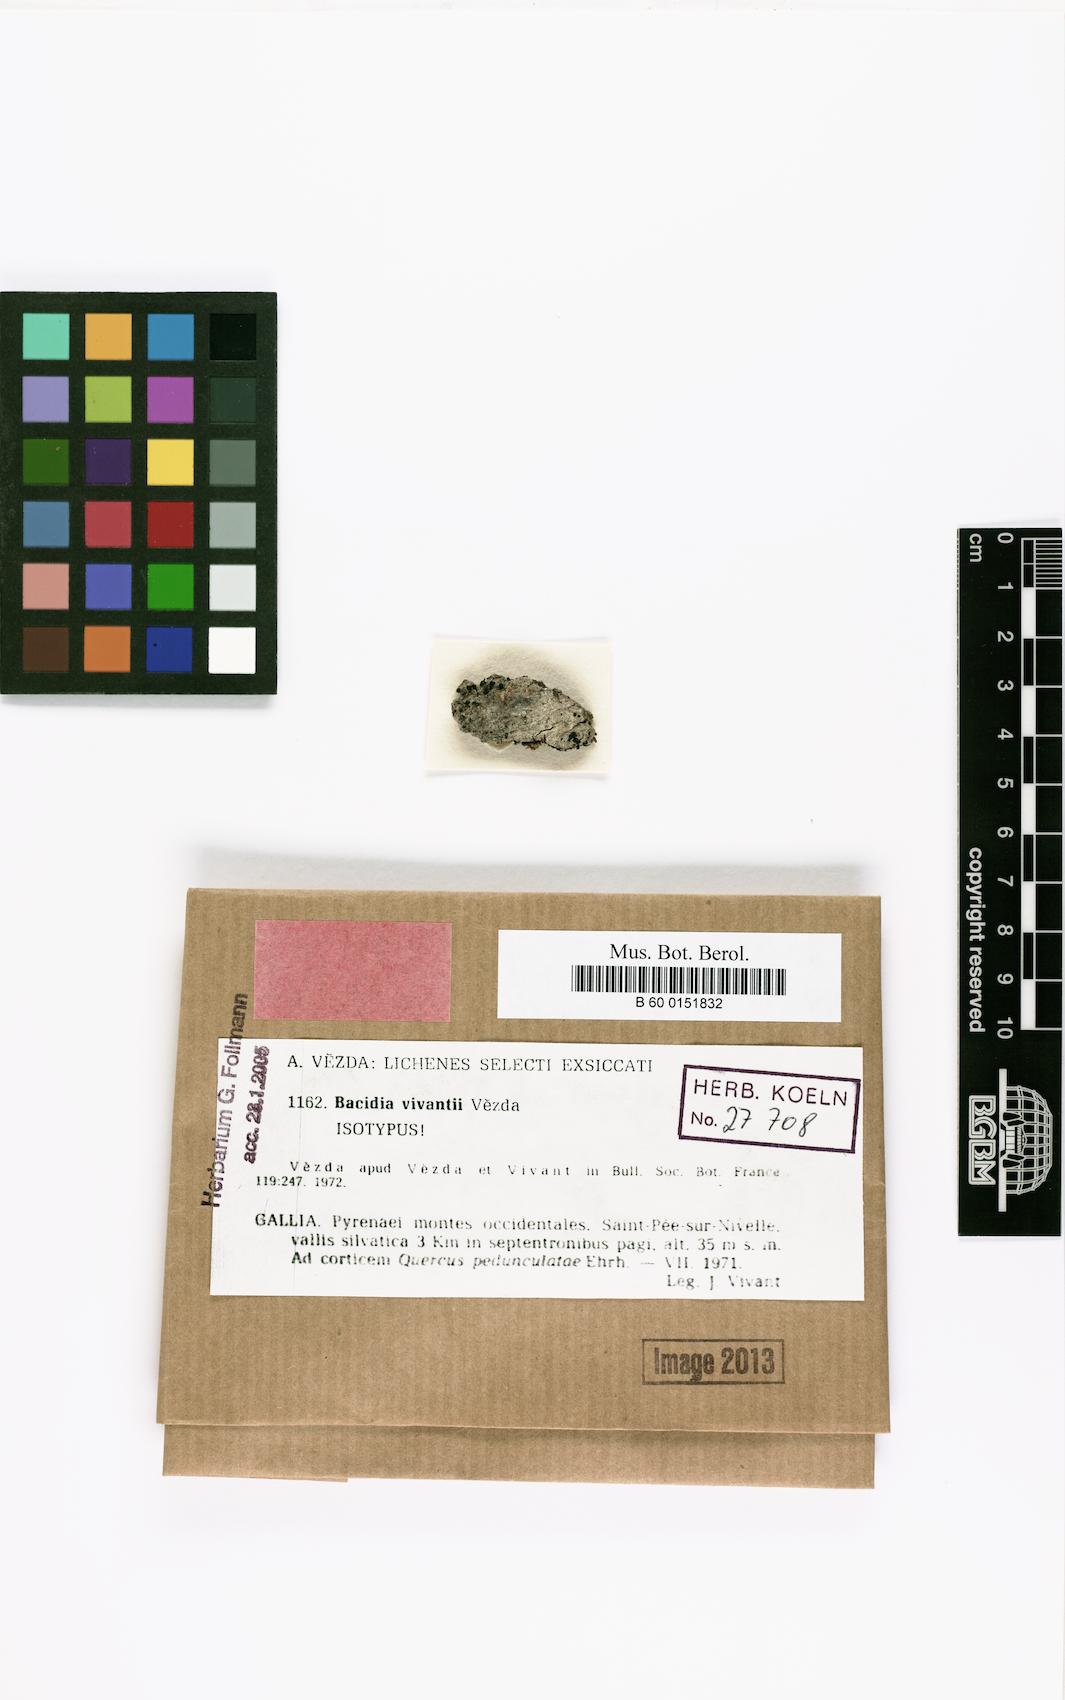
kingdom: Fungi
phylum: Ascomycota
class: Lecanoromycetes
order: Lecanorales
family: Ramalinaceae
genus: Bacidia
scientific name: Bacidia vivantii
